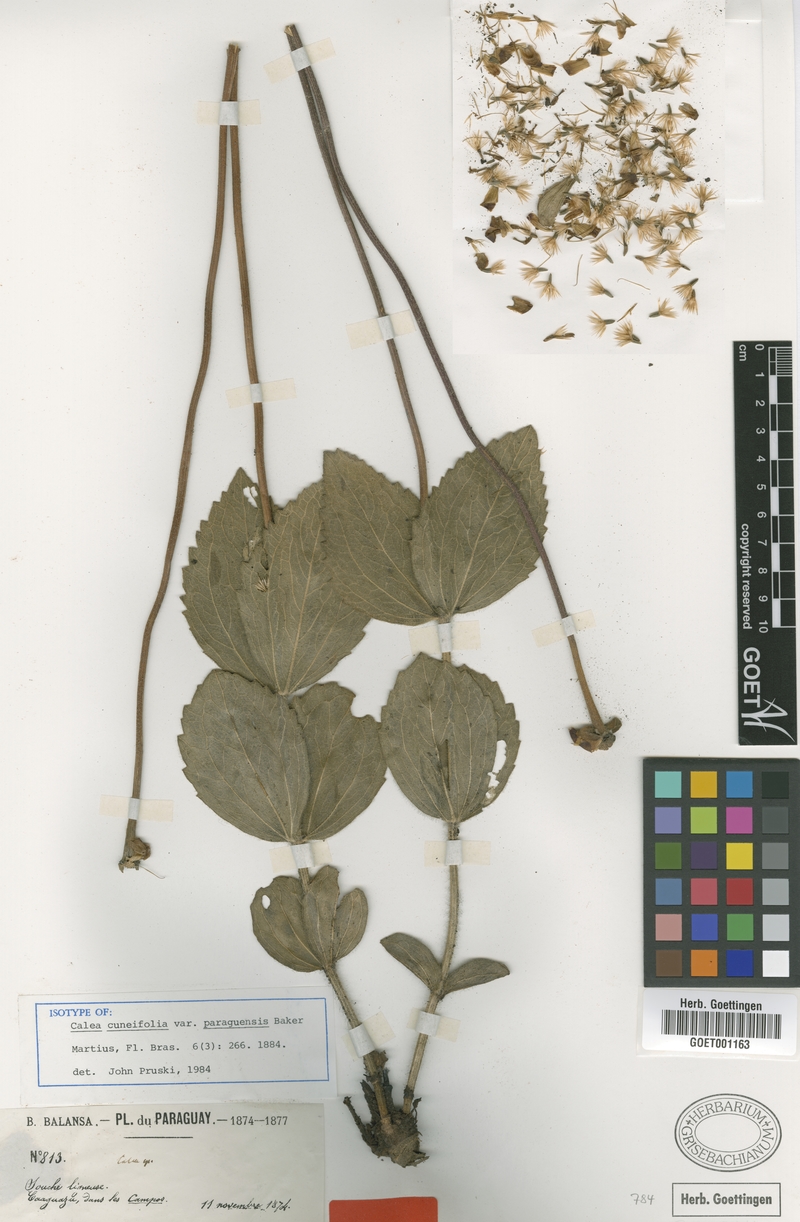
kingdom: Plantae
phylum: Tracheophyta
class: Magnoliopsida
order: Asterales
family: Asteraceae
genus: Calea
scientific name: Calea cuneifolia
